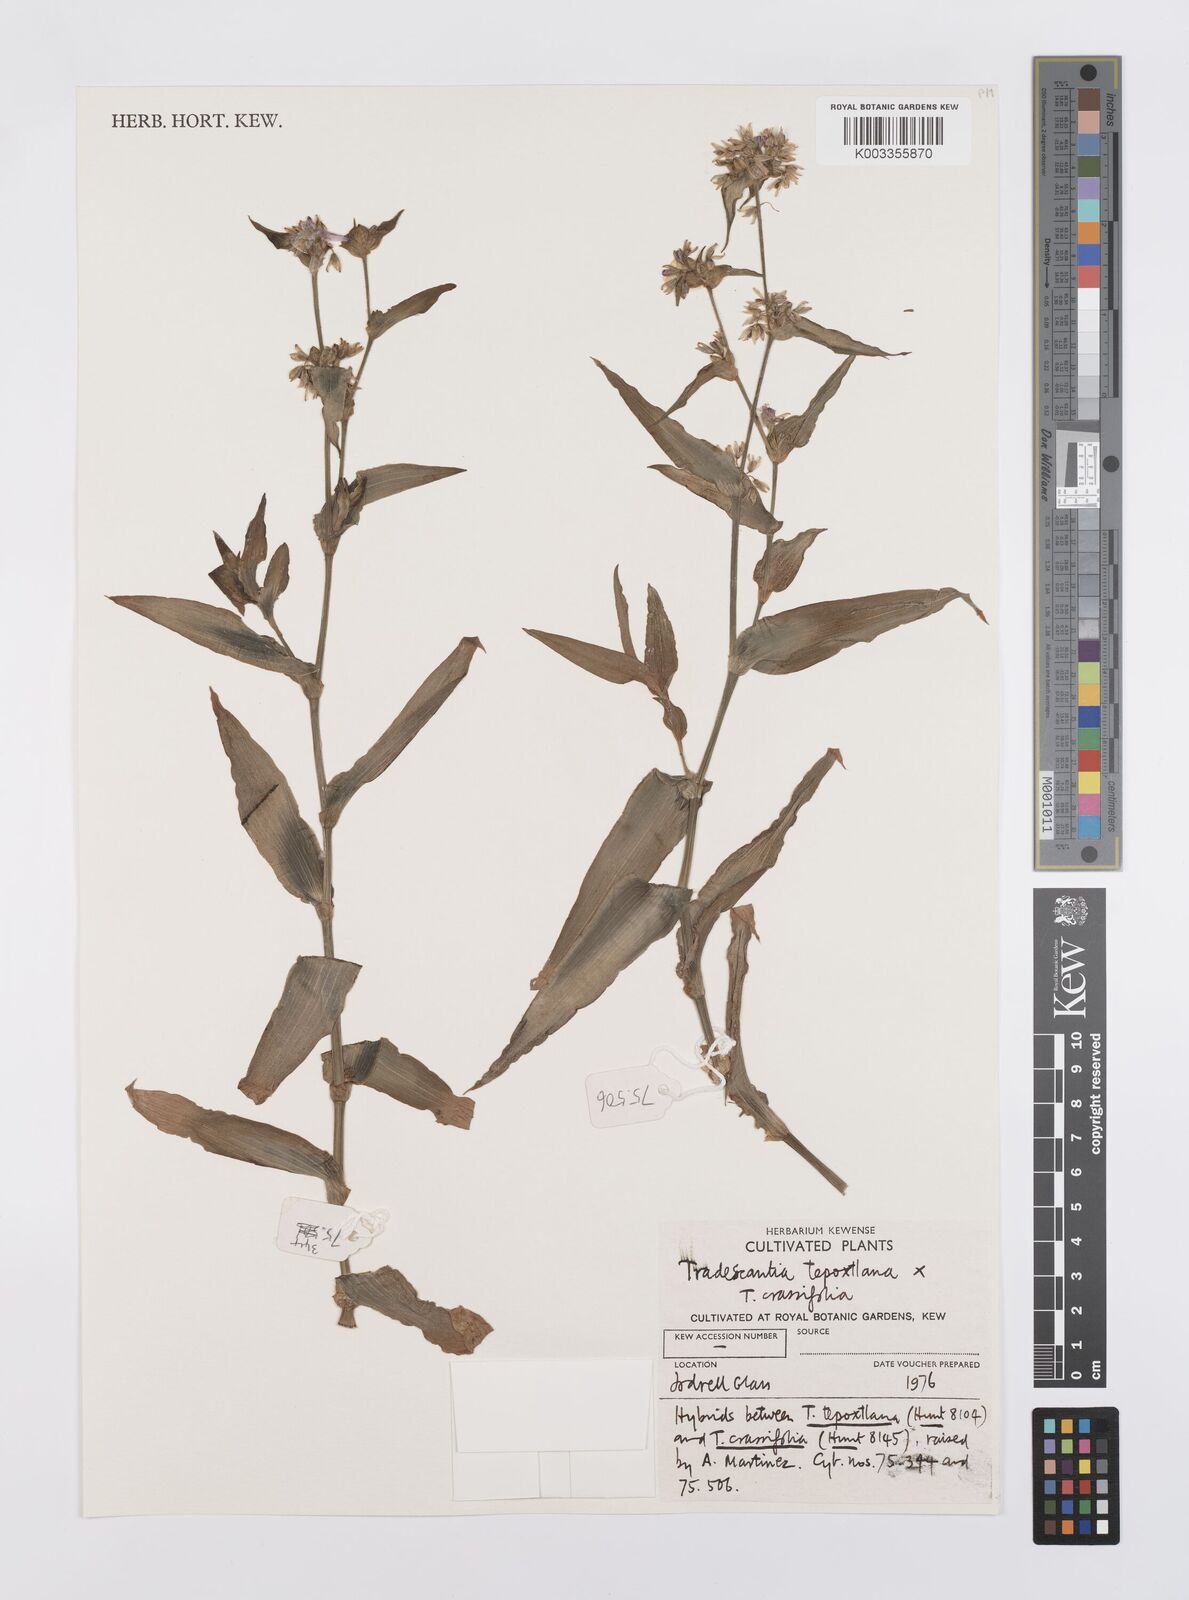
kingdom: Plantae
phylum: Tracheophyta
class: Liliopsida
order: Commelinales
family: Commelinaceae
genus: Tradescantia
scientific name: Tradescantia tepoxtlana
